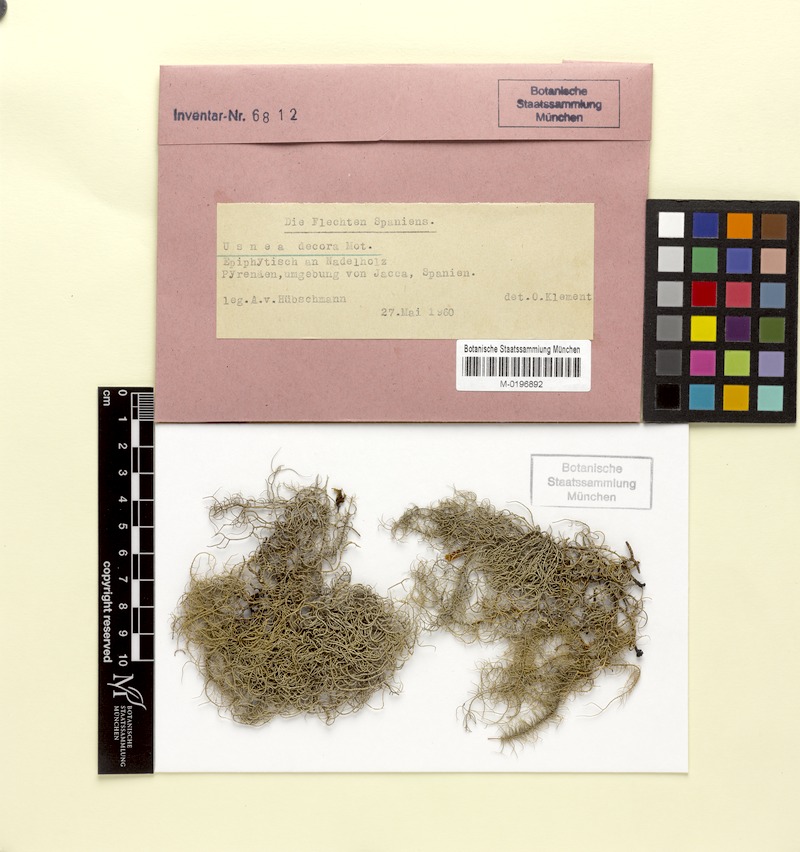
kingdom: Fungi
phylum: Ascomycota
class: Lecanoromycetes
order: Lecanorales
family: Parmeliaceae
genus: Usnea
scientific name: Usnea plicata
